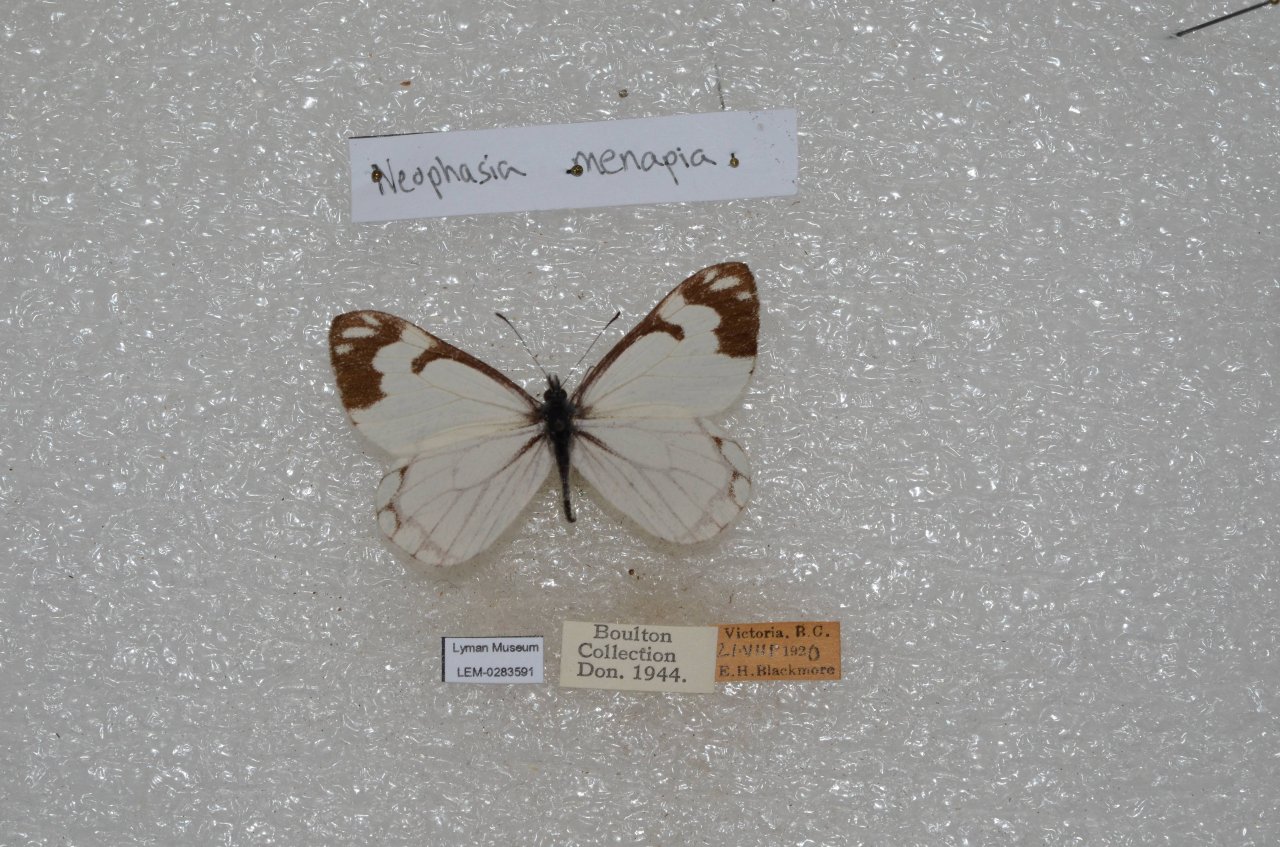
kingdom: Animalia
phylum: Arthropoda
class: Insecta
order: Lepidoptera
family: Pieridae
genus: Neophasia
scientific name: Neophasia menapia
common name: Pine White
